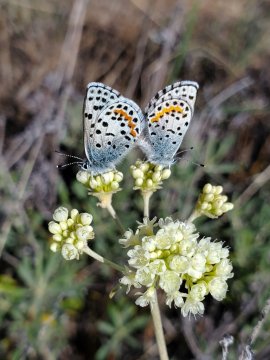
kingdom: Animalia
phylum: Arthropoda
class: Insecta
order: Lepidoptera
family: Lycaenidae
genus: Euphilotes
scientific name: Euphilotes
